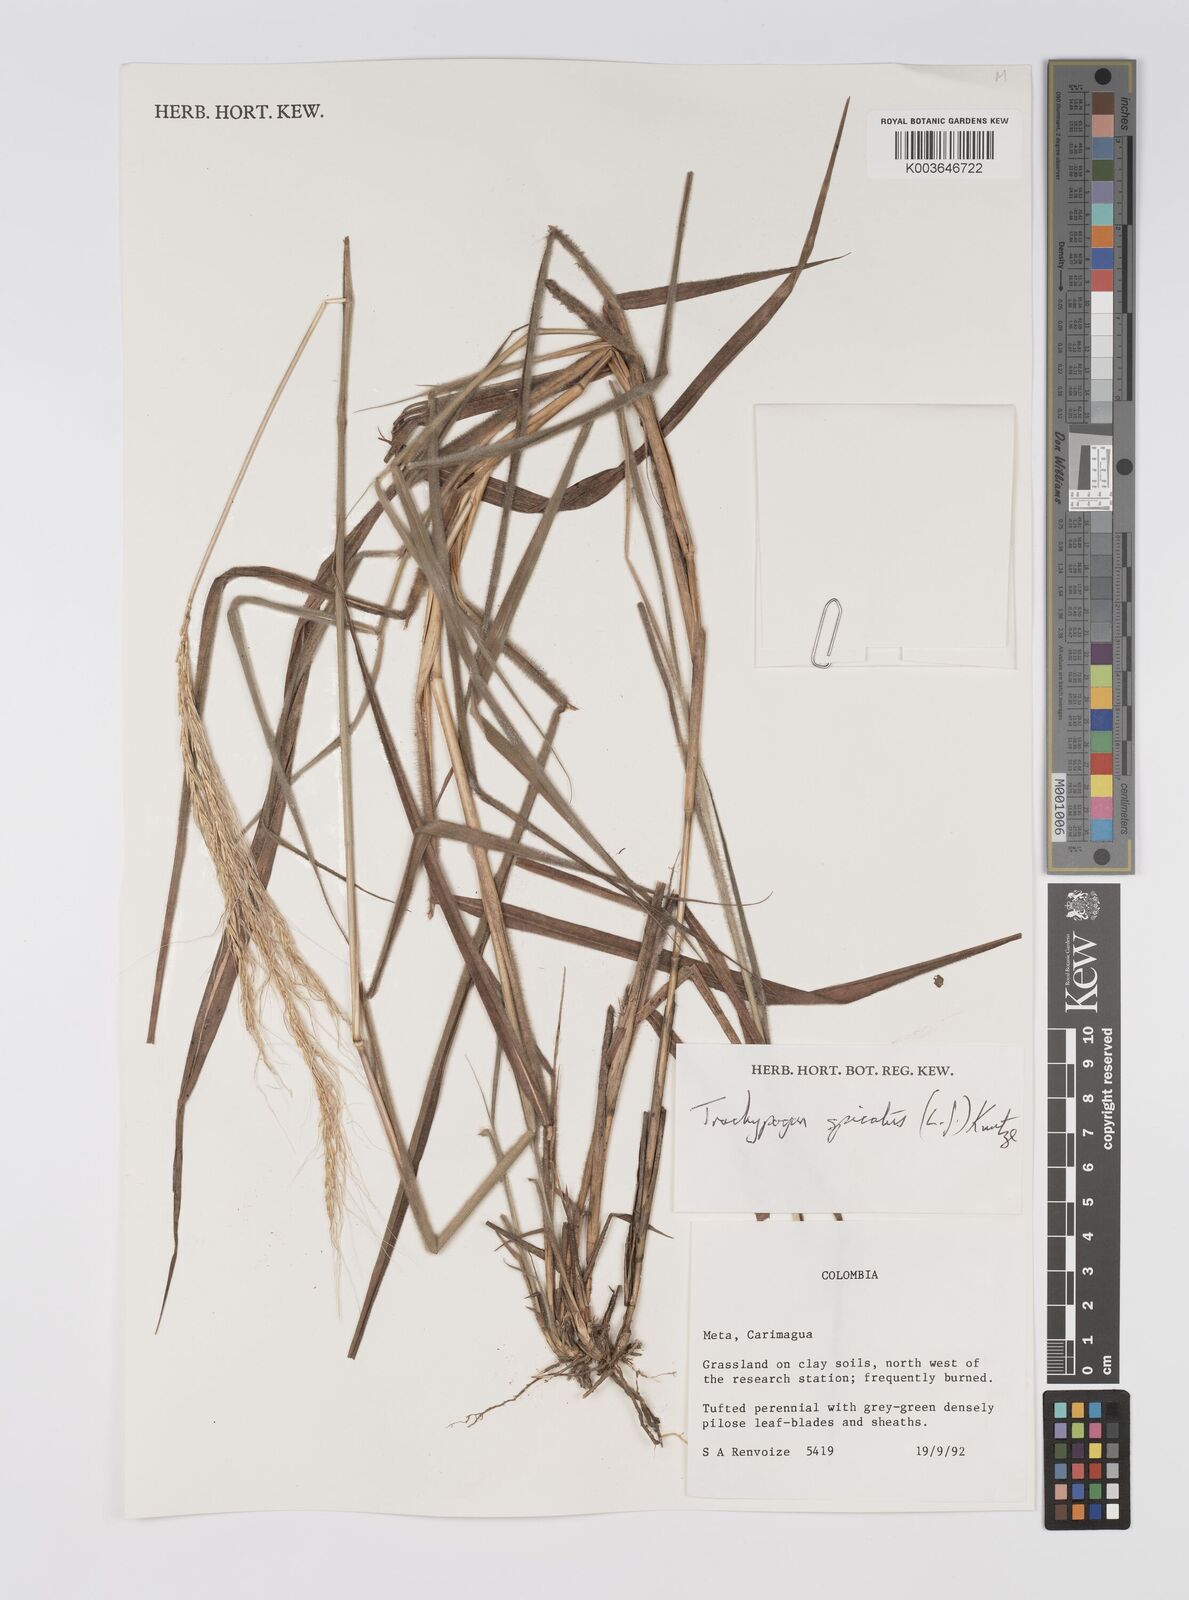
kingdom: Plantae
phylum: Tracheophyta
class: Liliopsida
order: Poales
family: Poaceae
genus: Trachypogon
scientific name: Trachypogon spicatus
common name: Crinkle-awn
